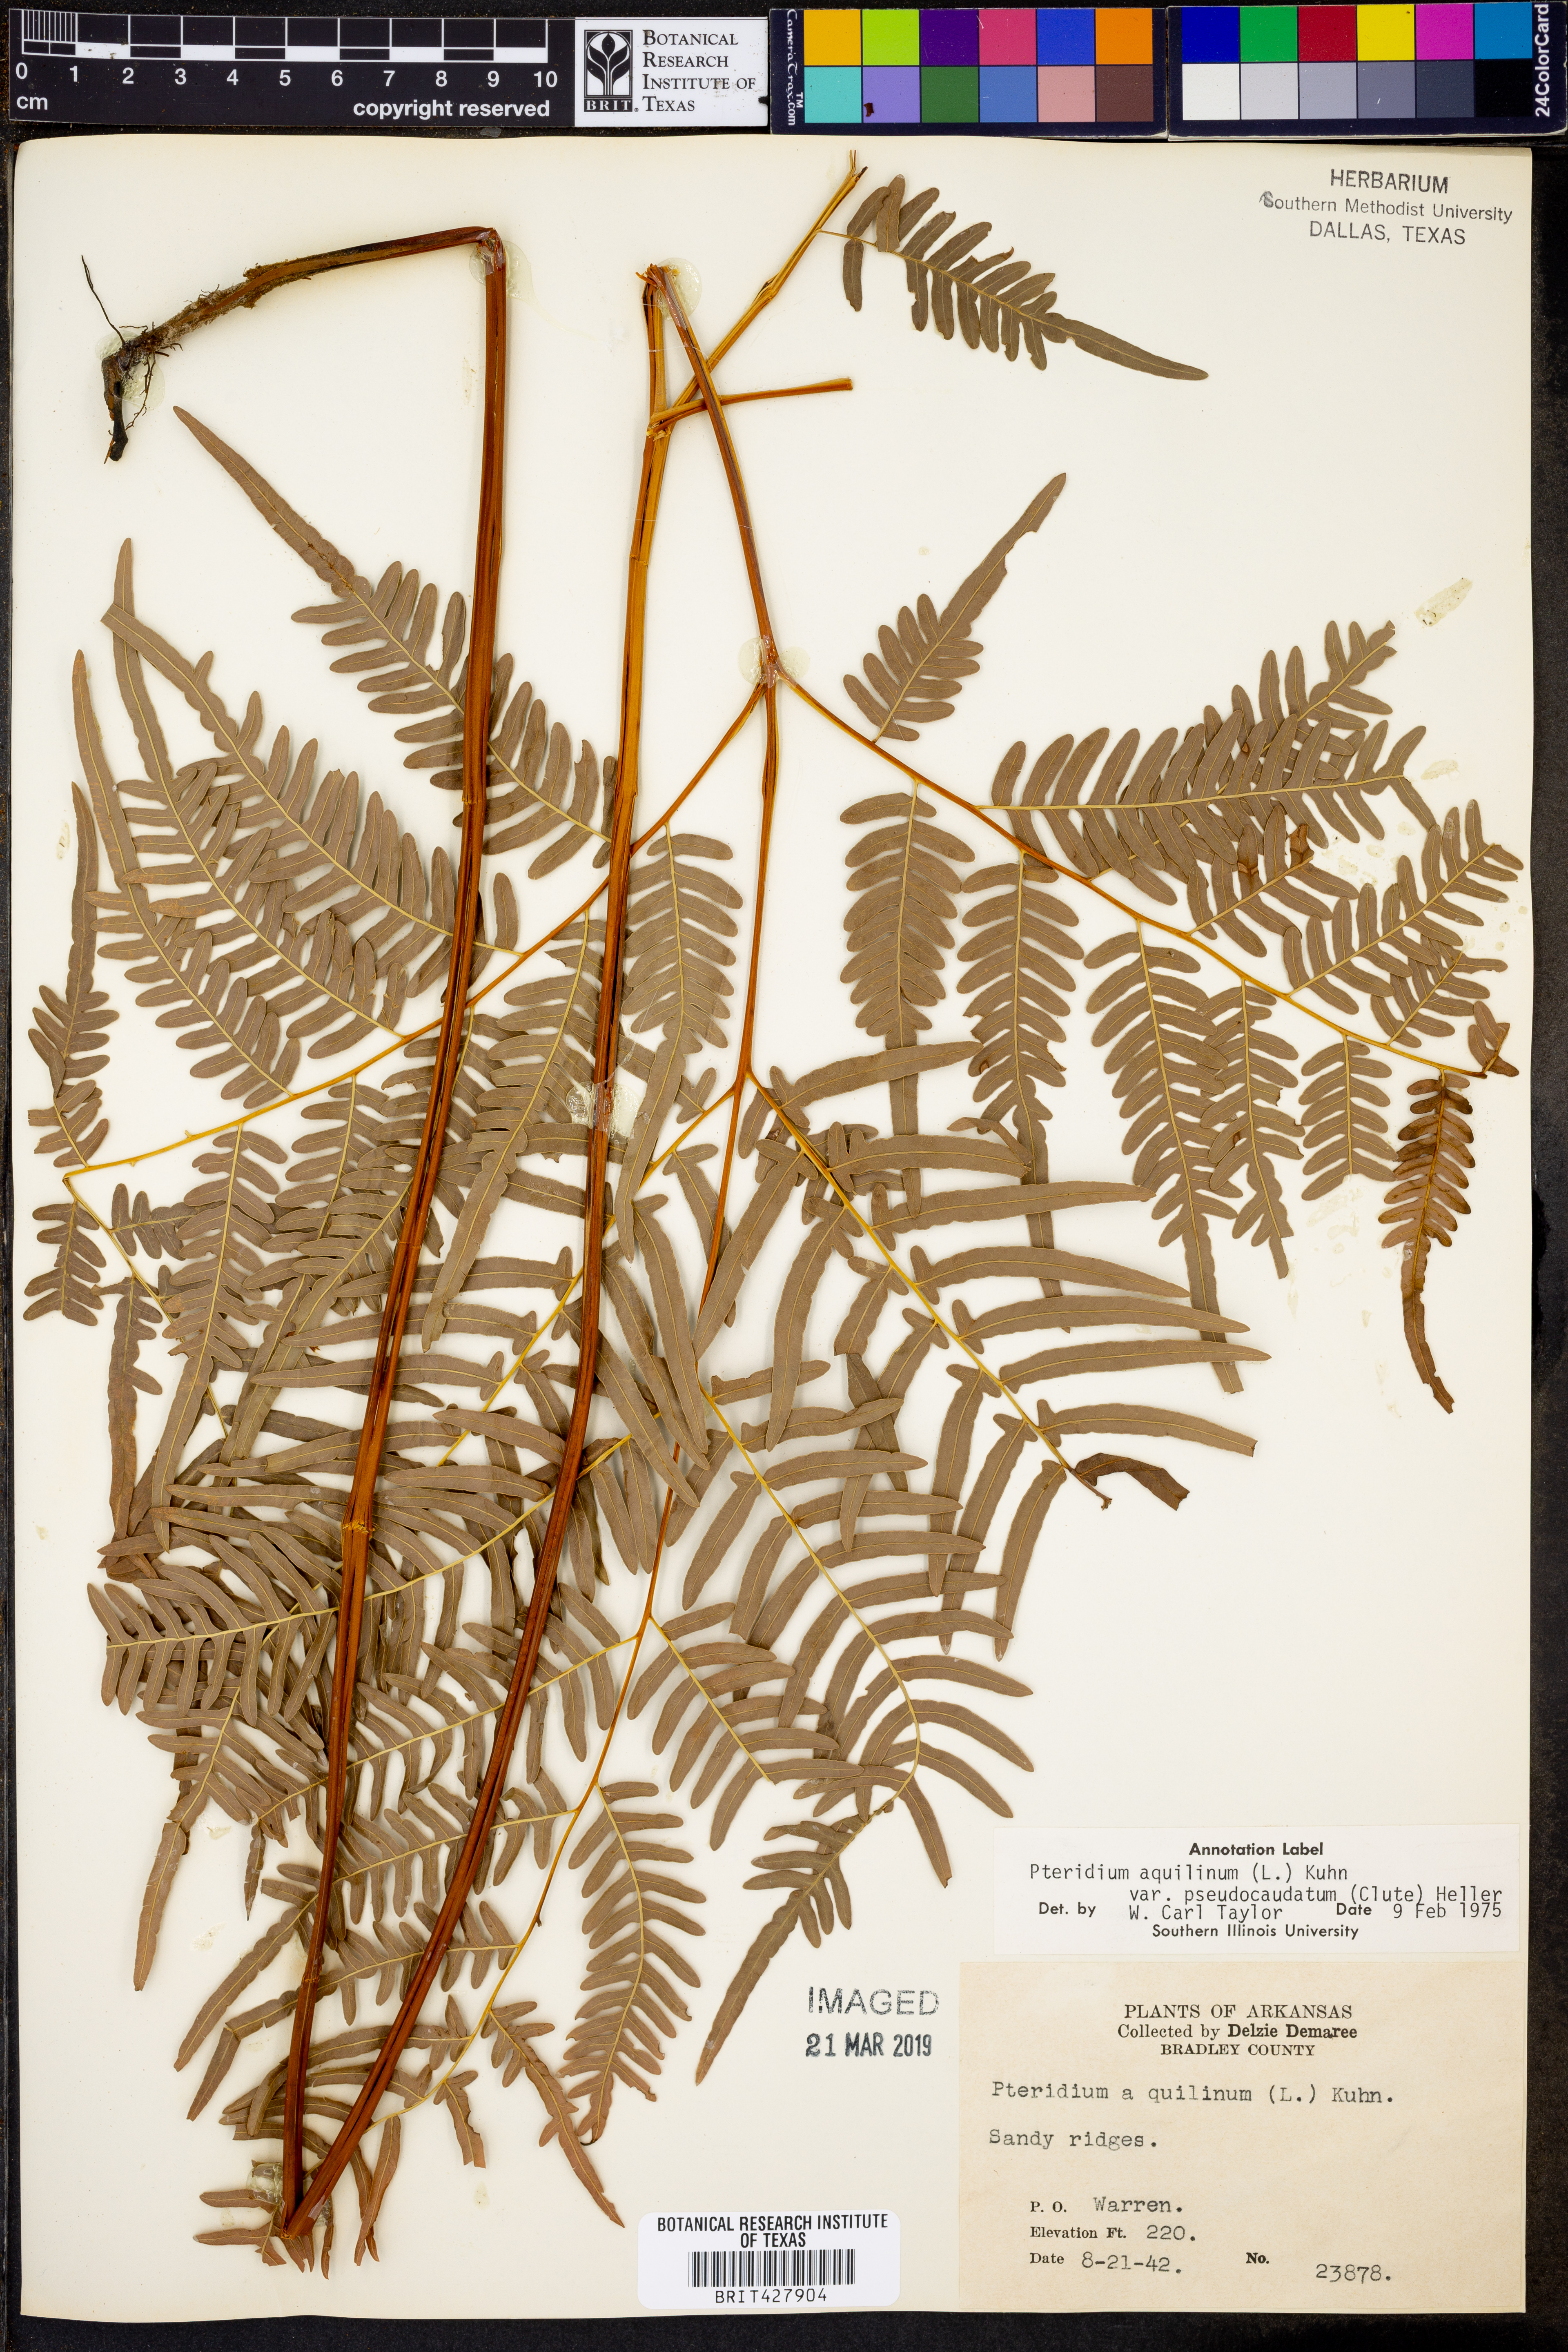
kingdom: Plantae
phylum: Tracheophyta
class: Polypodiopsida
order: Polypodiales
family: Dennstaedtiaceae
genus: Pteridium
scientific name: Pteridium aquilinum
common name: Bracken
